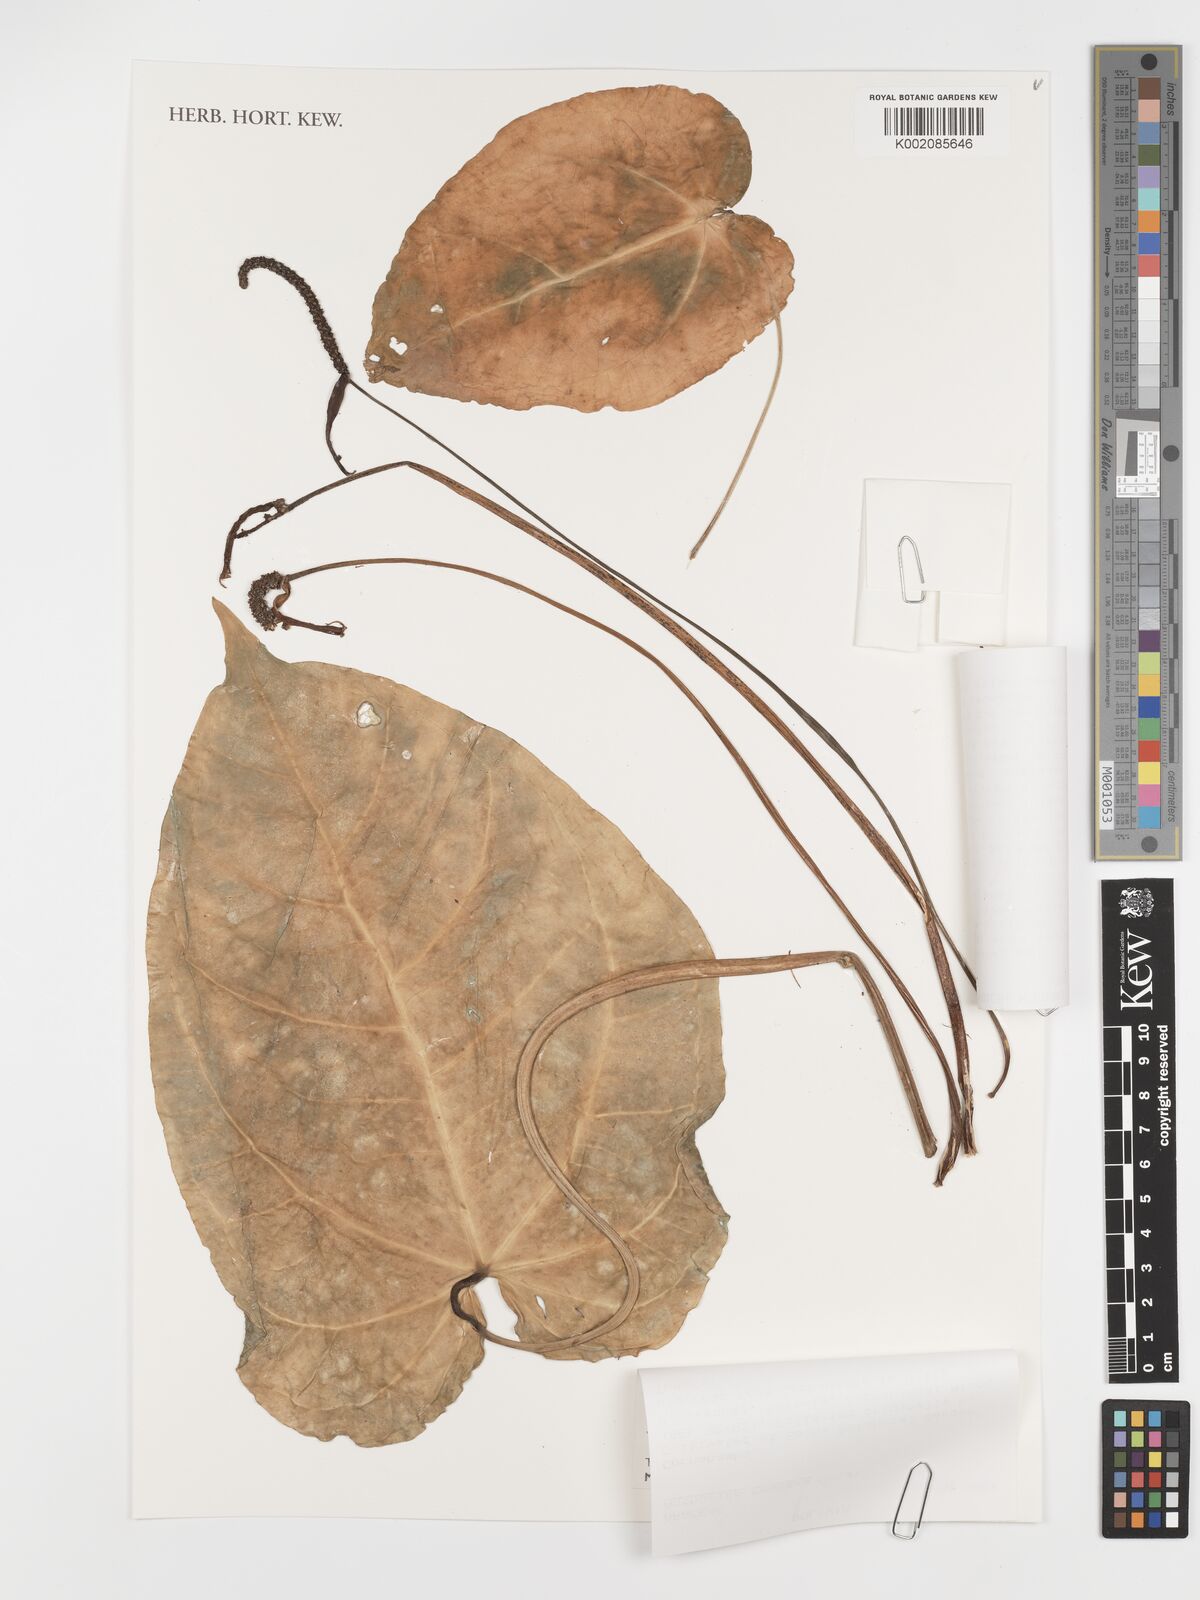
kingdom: Plantae
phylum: Tracheophyta
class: Liliopsida
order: Alismatales
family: Araceae
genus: Anthurium
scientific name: Anthurium besseae
